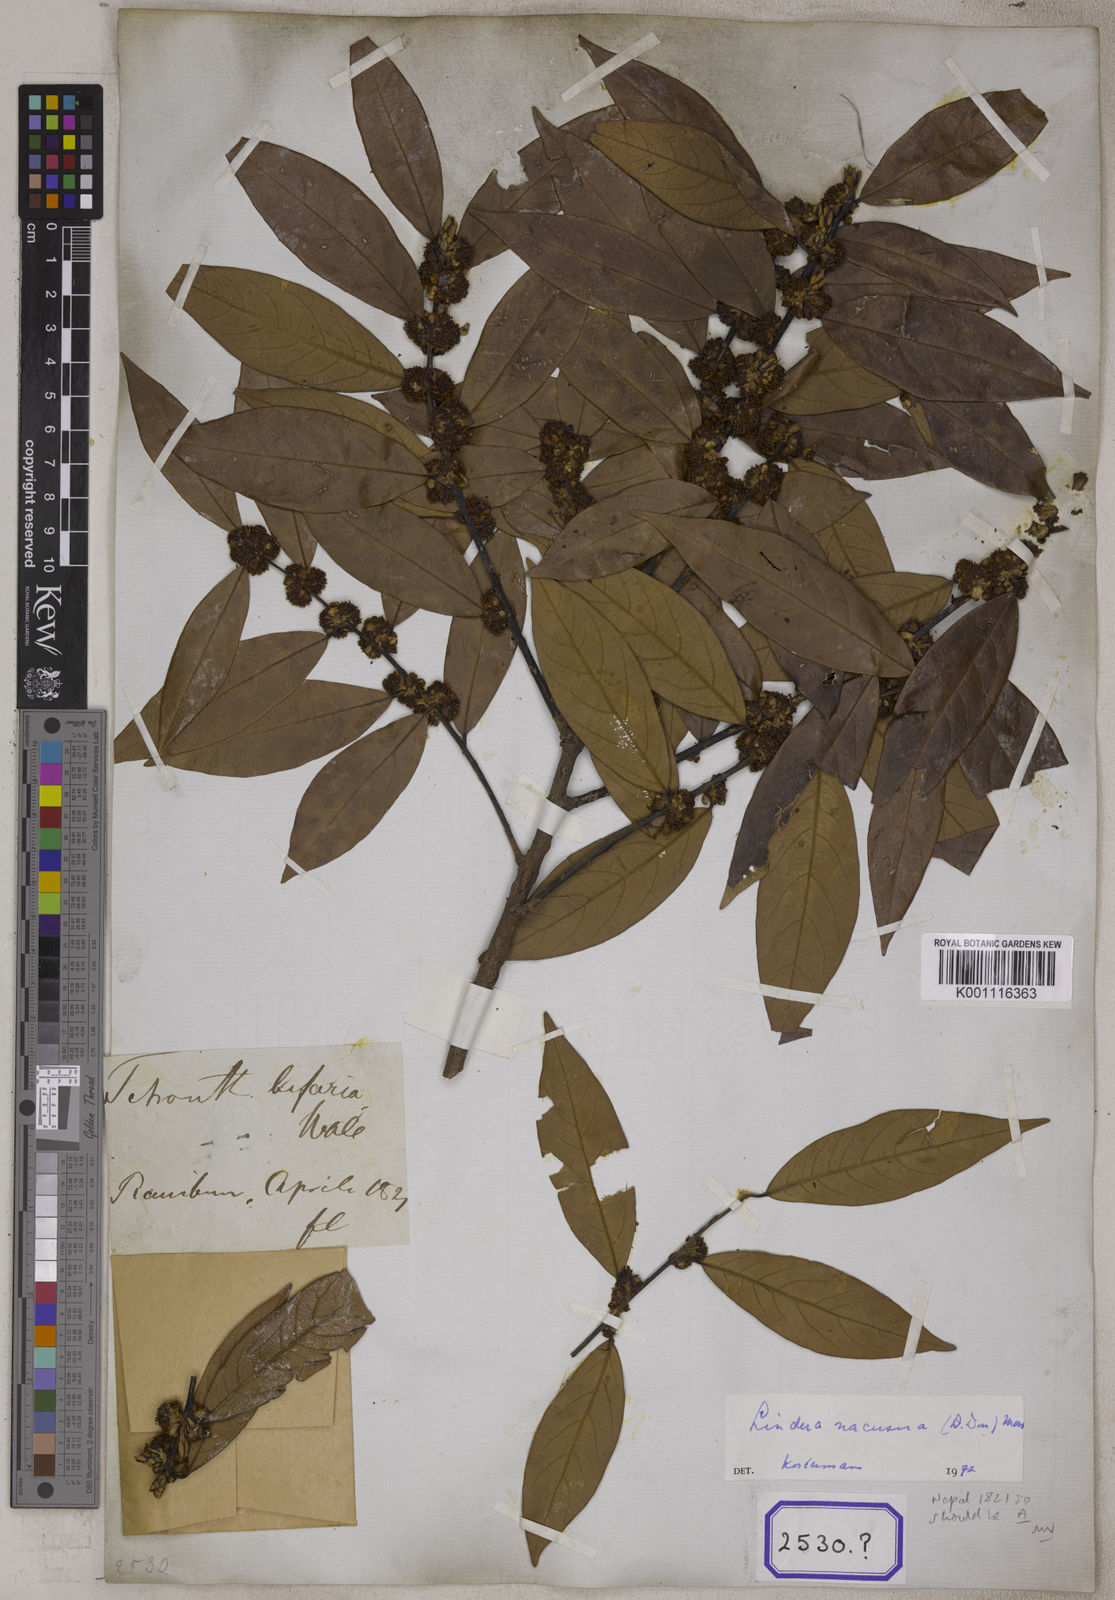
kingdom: Plantae
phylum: Tracheophyta
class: Magnoliopsida
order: Laurales
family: Lauraceae
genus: Lindera
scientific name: Lindera nacusua
